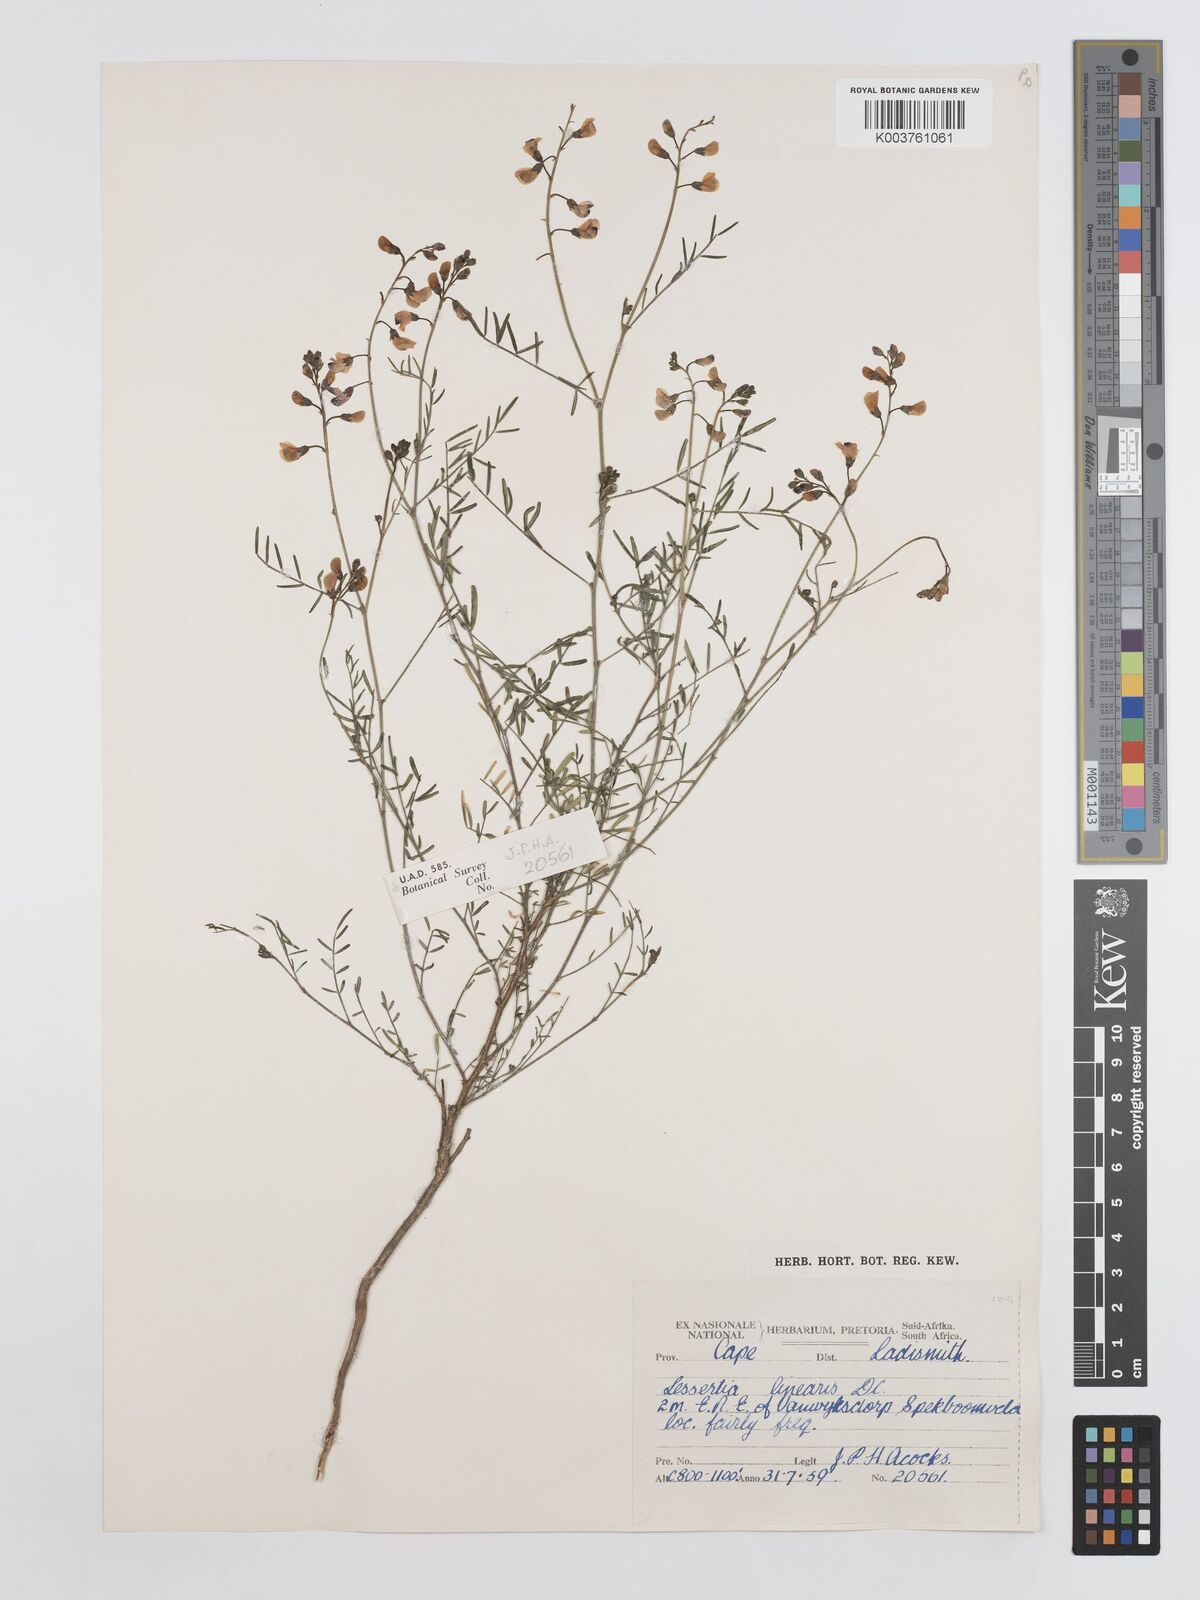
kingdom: Plantae
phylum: Tracheophyta
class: Magnoliopsida
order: Fabales
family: Fabaceae
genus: Lessertia
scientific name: Lessertia herbacea
